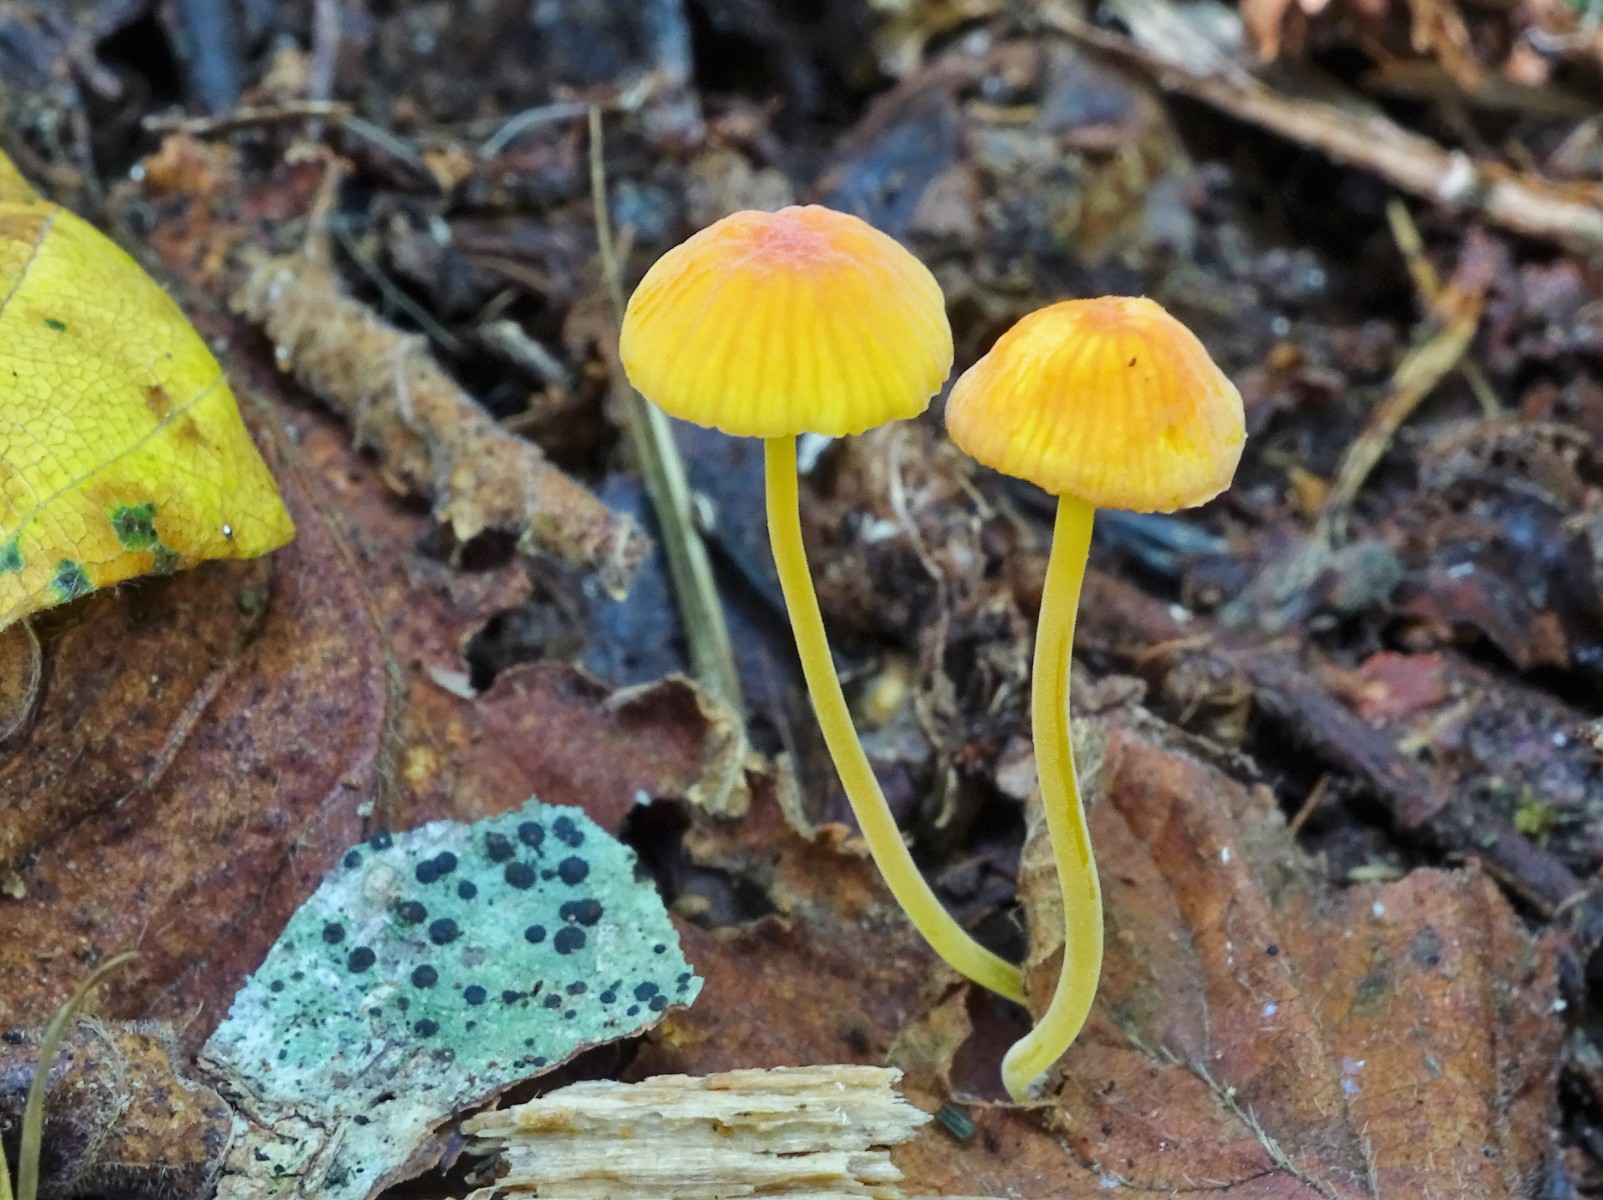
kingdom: Fungi
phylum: Basidiomycota
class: Agaricomycetes
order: Agaricales
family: Mycenaceae
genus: Mycena
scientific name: Mycena acicula
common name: orange huesvamp
